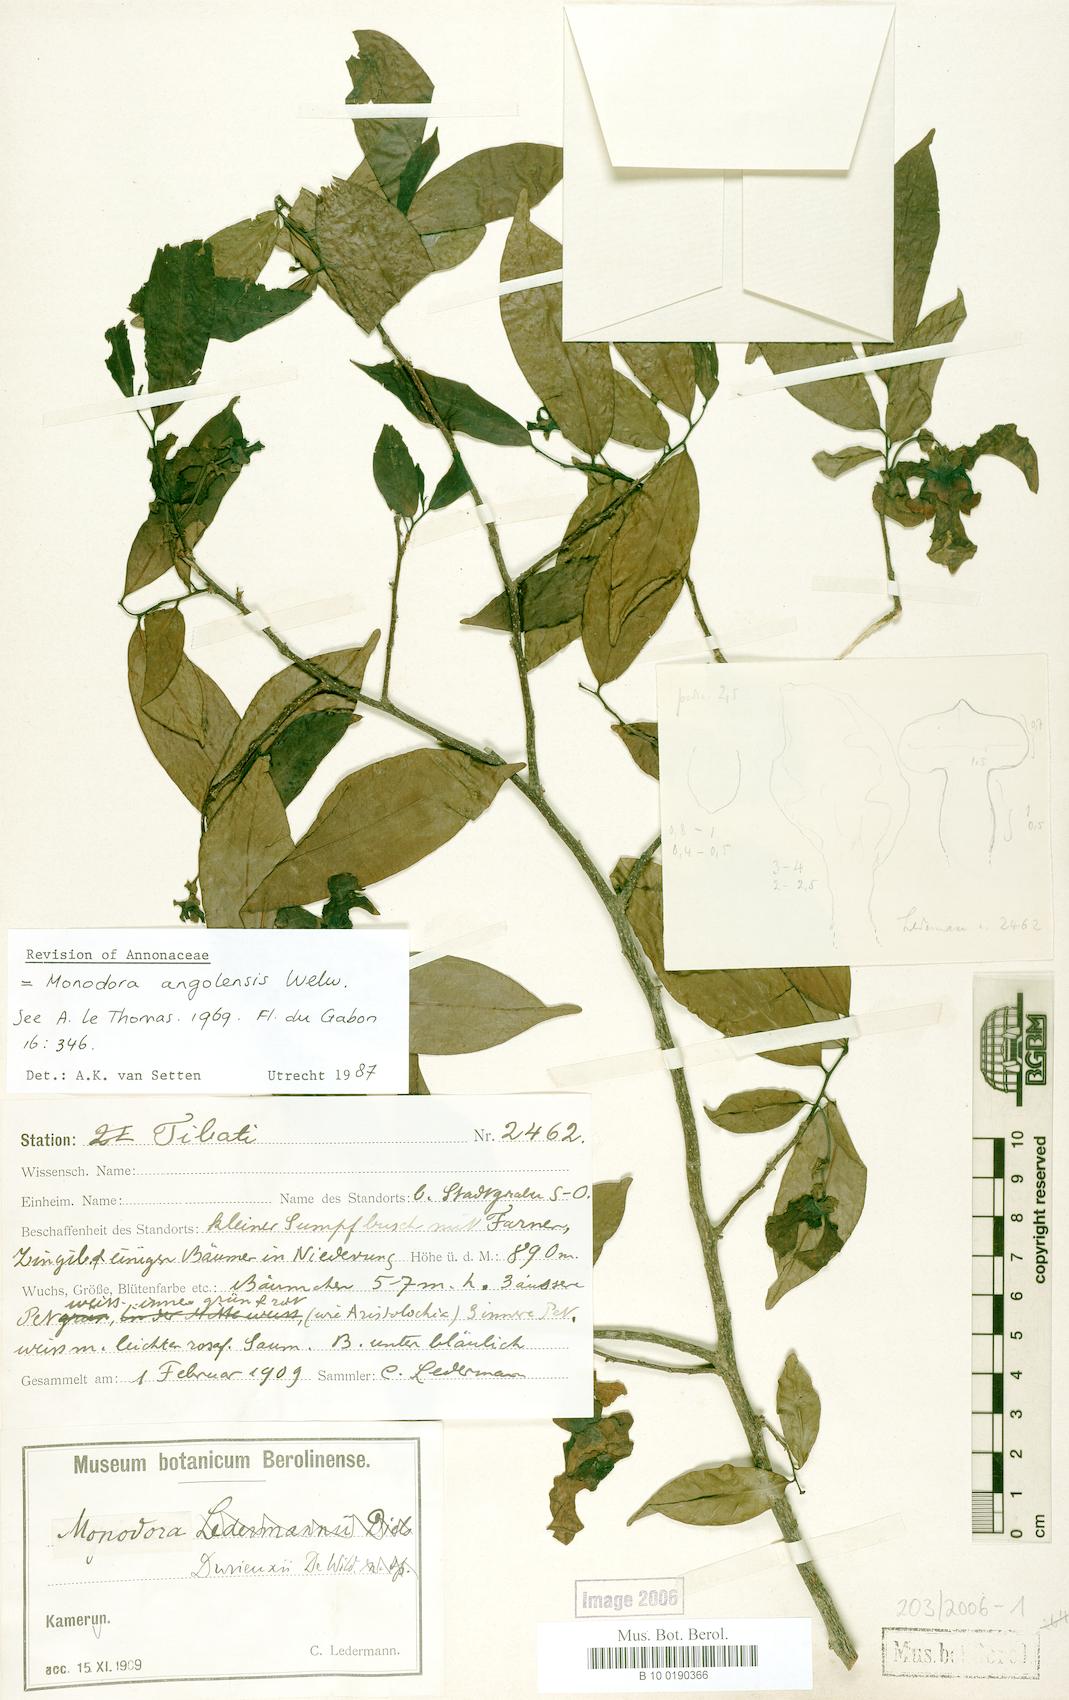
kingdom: Plantae
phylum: Tracheophyta
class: Magnoliopsida
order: Magnoliales
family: Annonaceae
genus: Monodora
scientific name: Monodora angolensis
